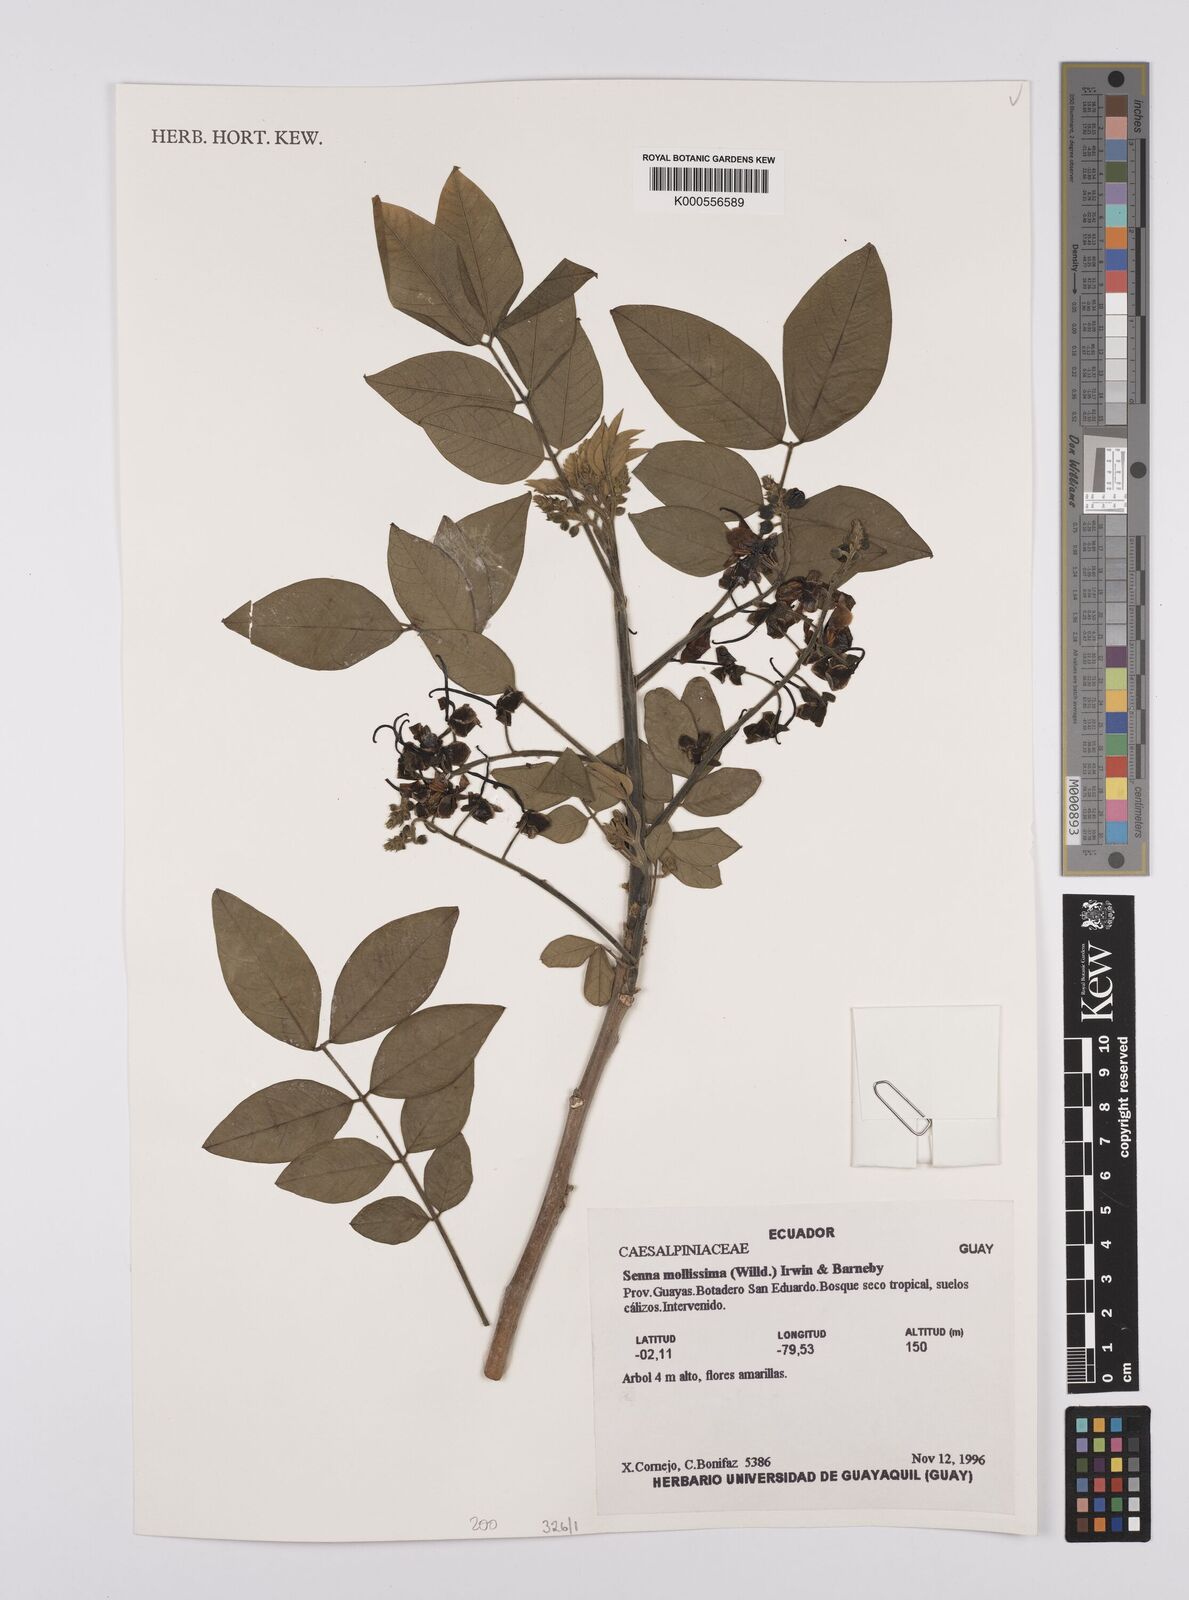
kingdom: Plantae
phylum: Tracheophyta
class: Magnoliopsida
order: Fabales
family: Fabaceae
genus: Senna
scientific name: Senna mollissima
